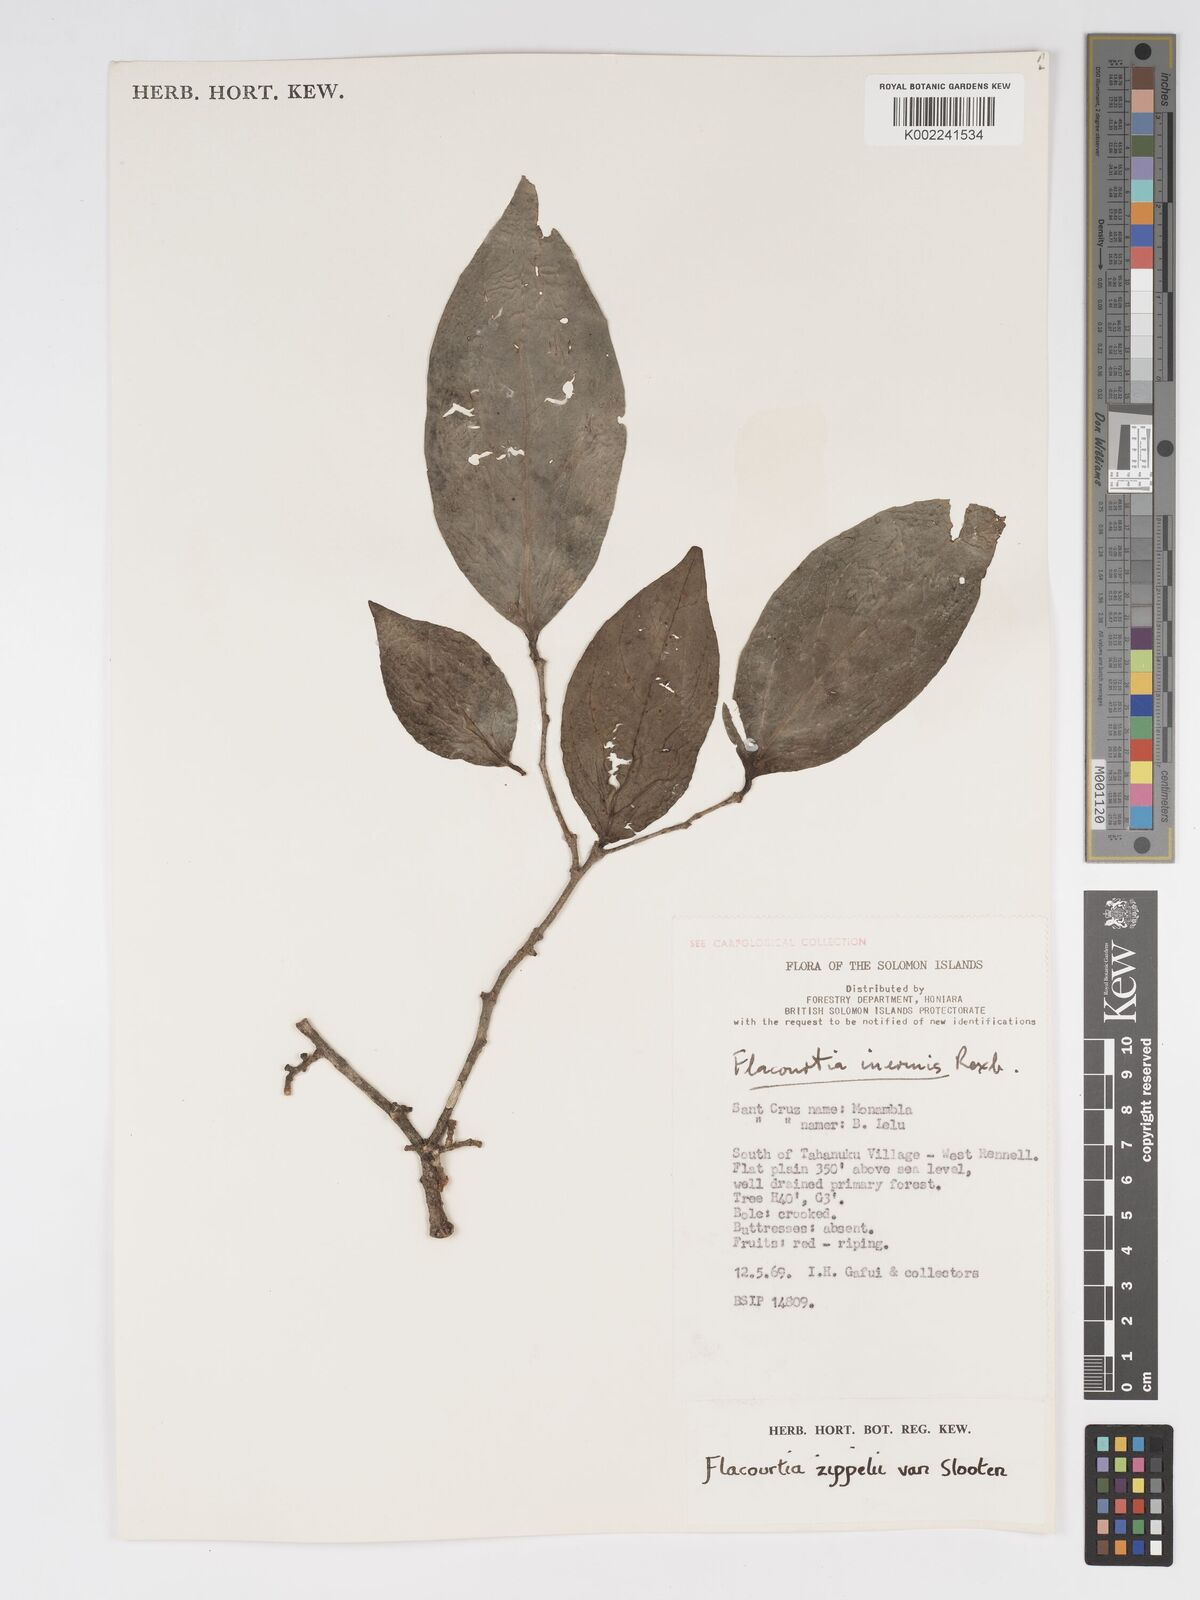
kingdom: Plantae
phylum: Tracheophyta
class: Magnoliopsida
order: Malpighiales
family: Salicaceae
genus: Flacourtia
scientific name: Flacourtia zippelii
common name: Zippeli plum
